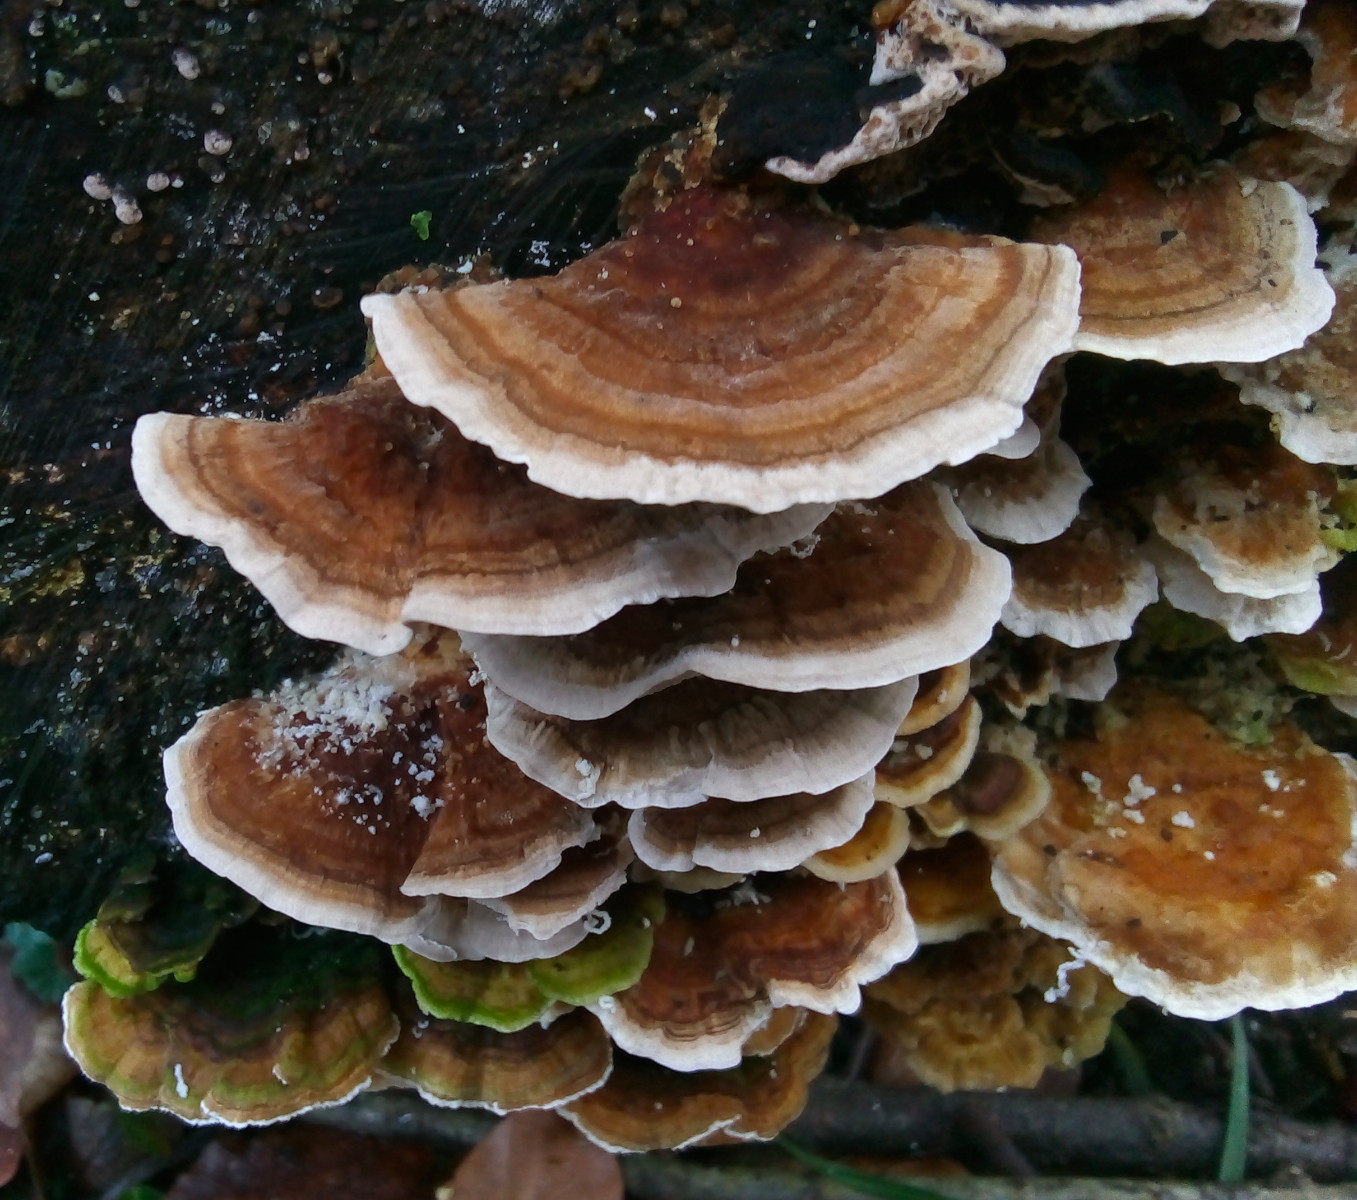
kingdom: Fungi
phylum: Basidiomycota
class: Agaricomycetes
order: Polyporales
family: Polyporaceae
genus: Trametes
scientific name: Trametes versicolor
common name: broget læderporesvamp
